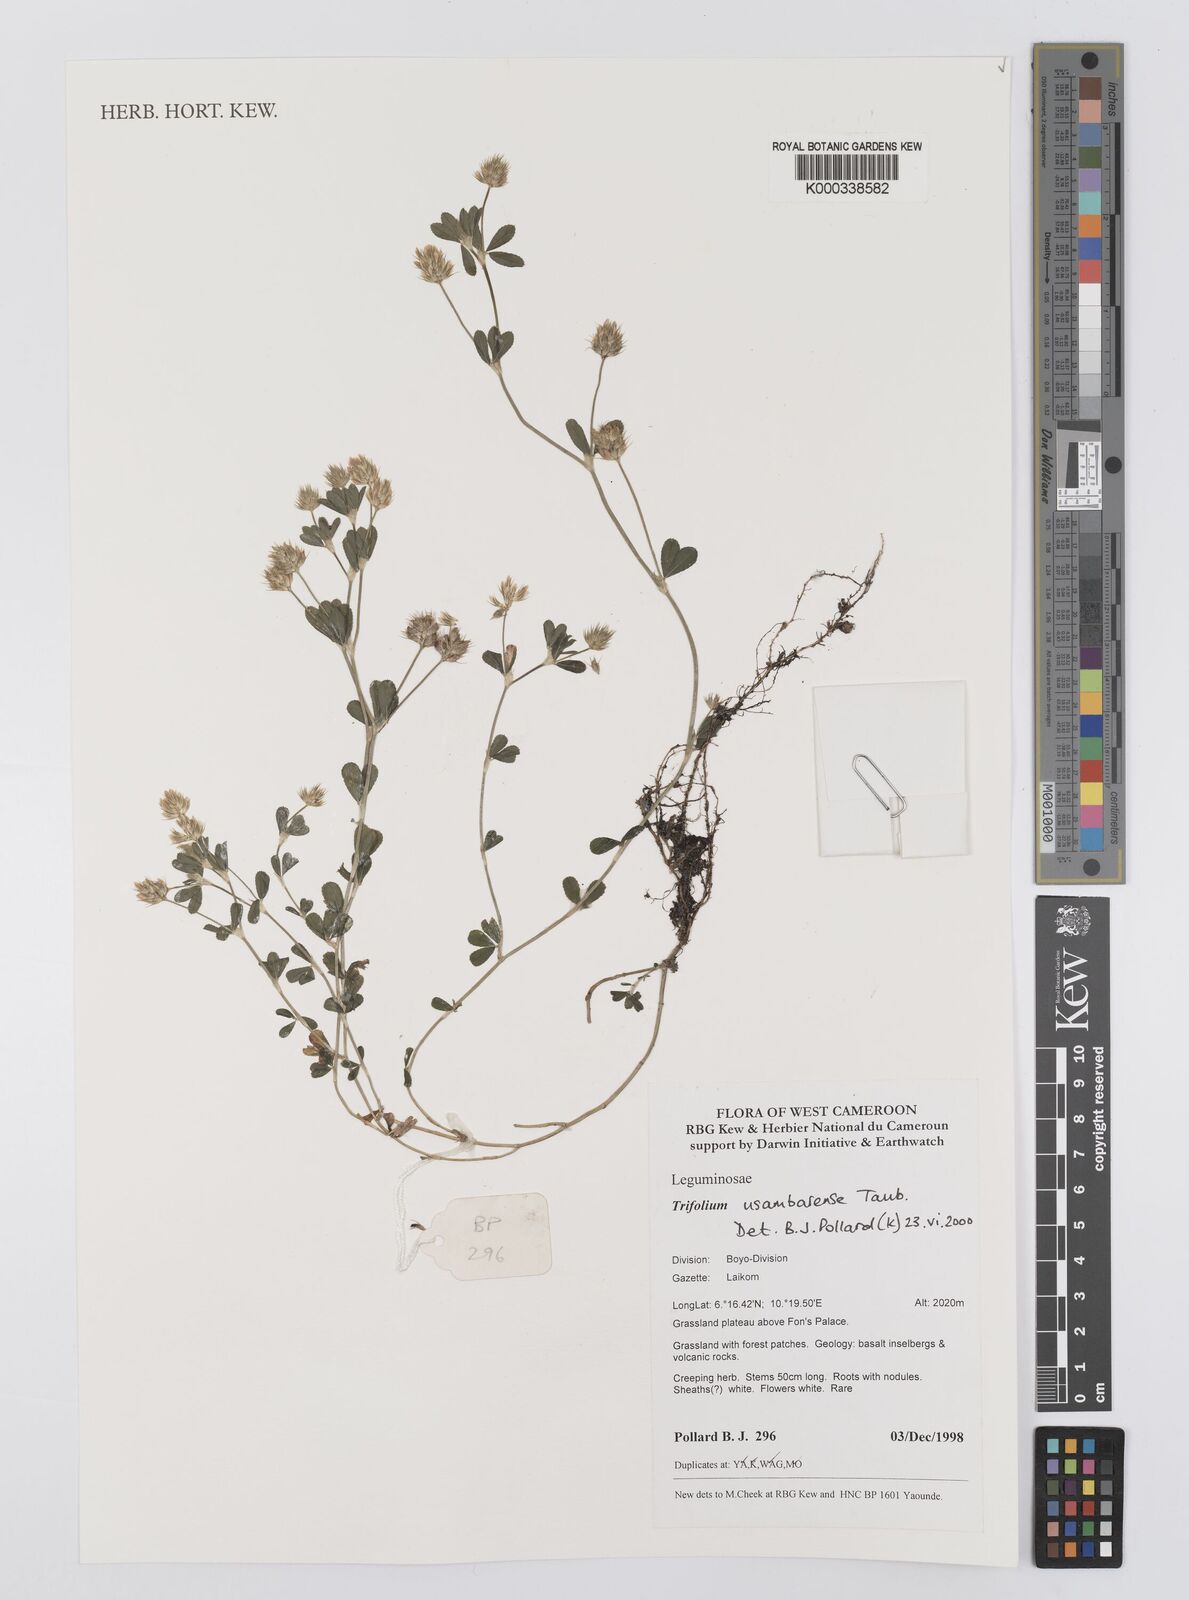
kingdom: Plantae
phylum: Tracheophyta
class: Magnoliopsida
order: Fabales
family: Fabaceae
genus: Trifolium
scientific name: Trifolium usambarense
